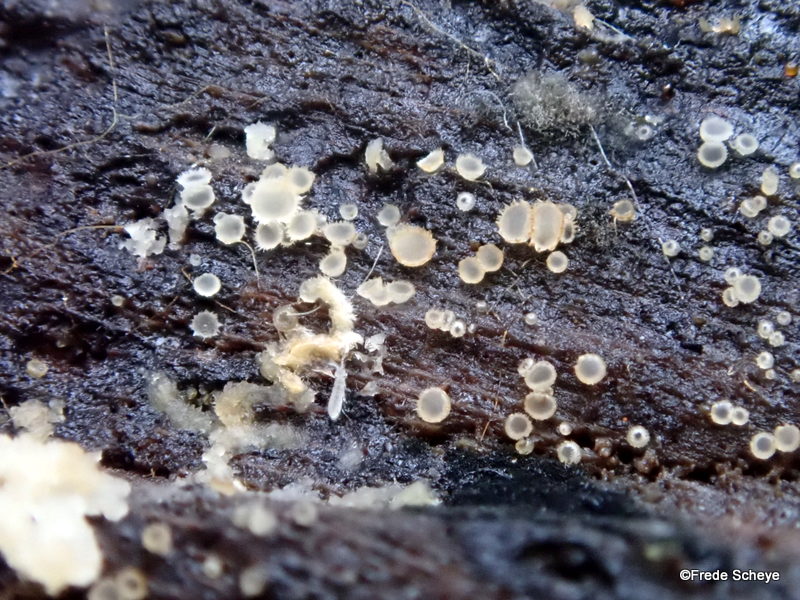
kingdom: Fungi
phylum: Ascomycota
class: Leotiomycetes
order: Helotiales
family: Hyaloscyphaceae
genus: Protounguicularia
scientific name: Protounguicularia transiens
